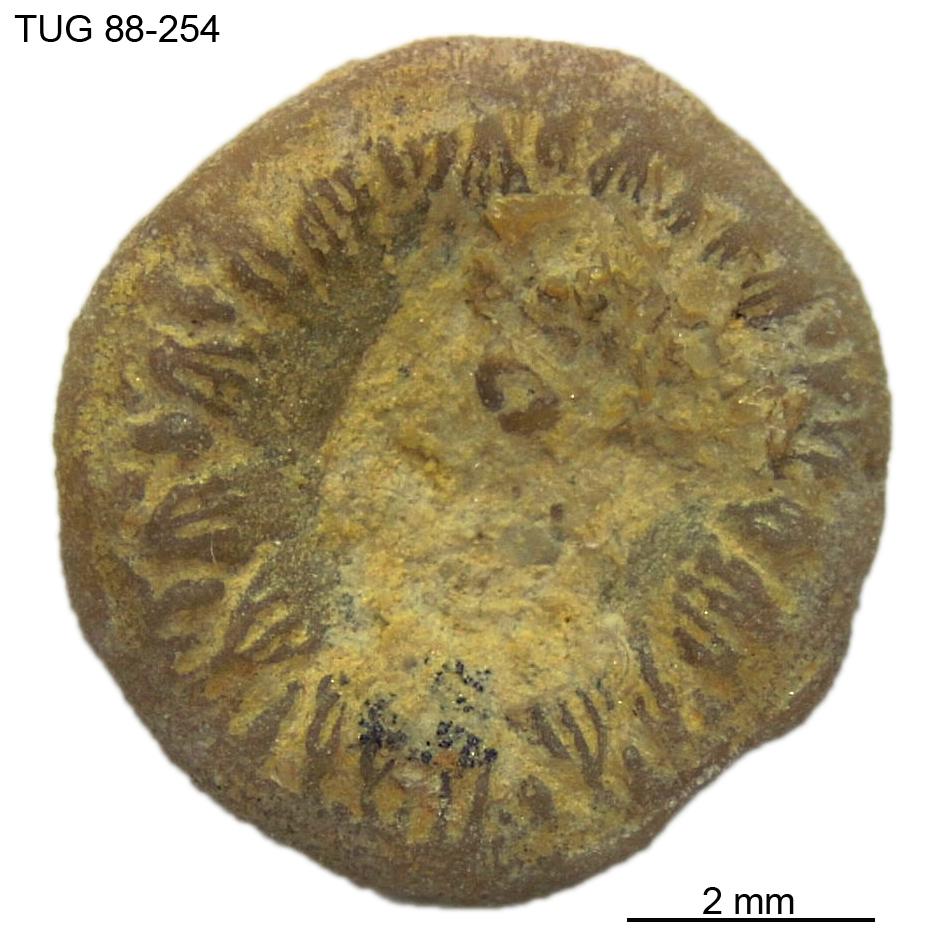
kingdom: Animalia
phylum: Echinodermata
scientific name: Echinodermata
